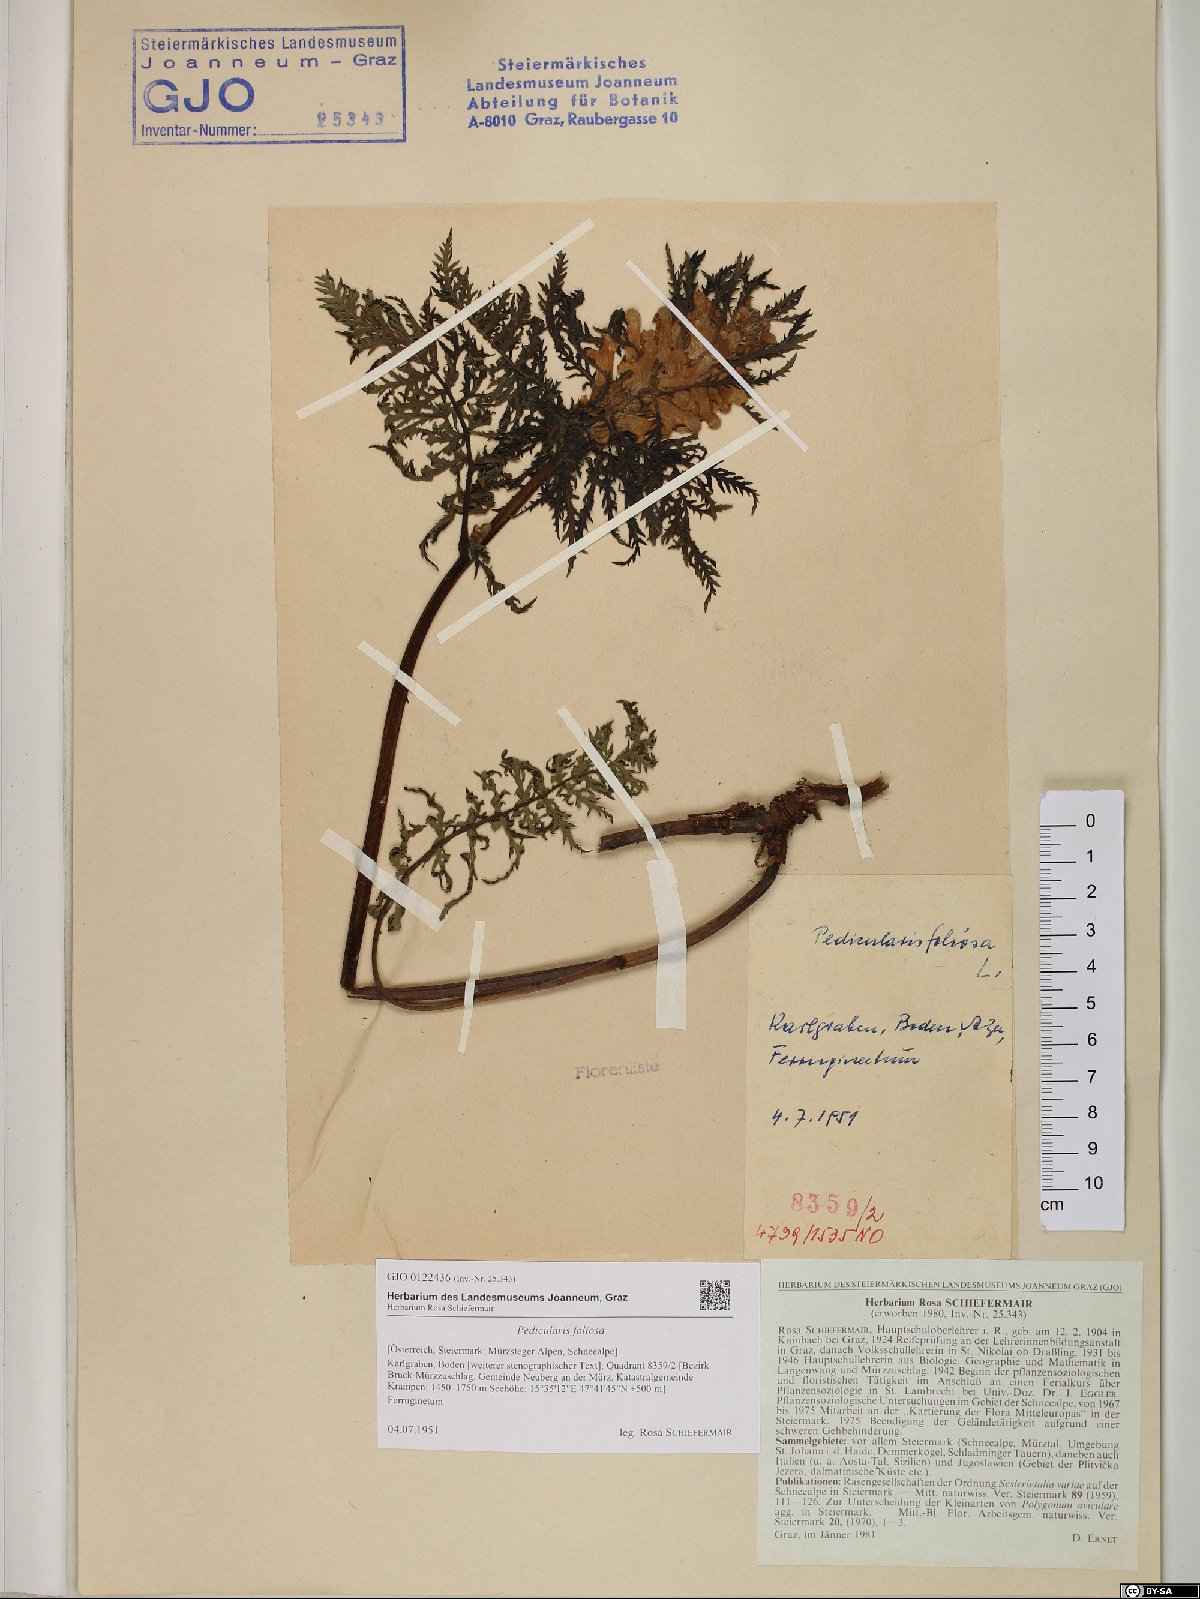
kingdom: Plantae
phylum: Tracheophyta
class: Magnoliopsida
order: Lamiales
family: Orobanchaceae
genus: Pedicularis
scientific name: Pedicularis foliosa
